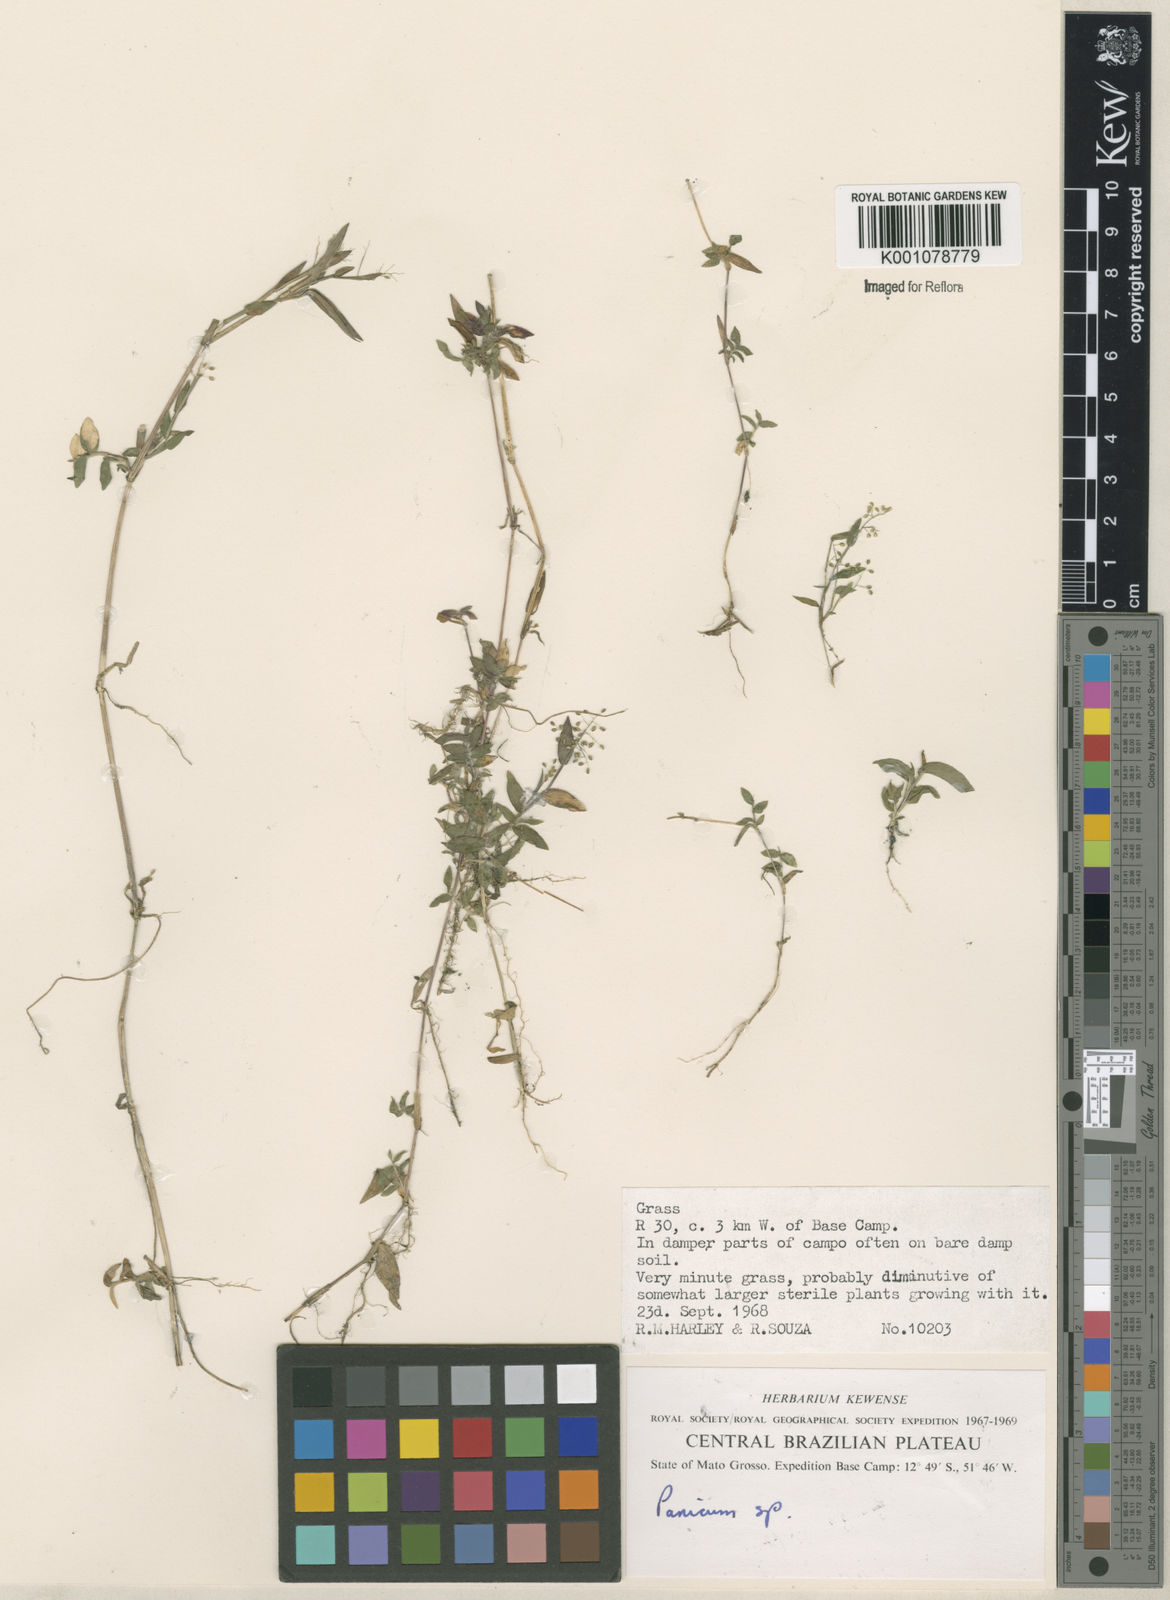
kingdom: Plantae
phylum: Tracheophyta
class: Liliopsida
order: Poales
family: Poaceae
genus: Panicum
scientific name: Panicum
